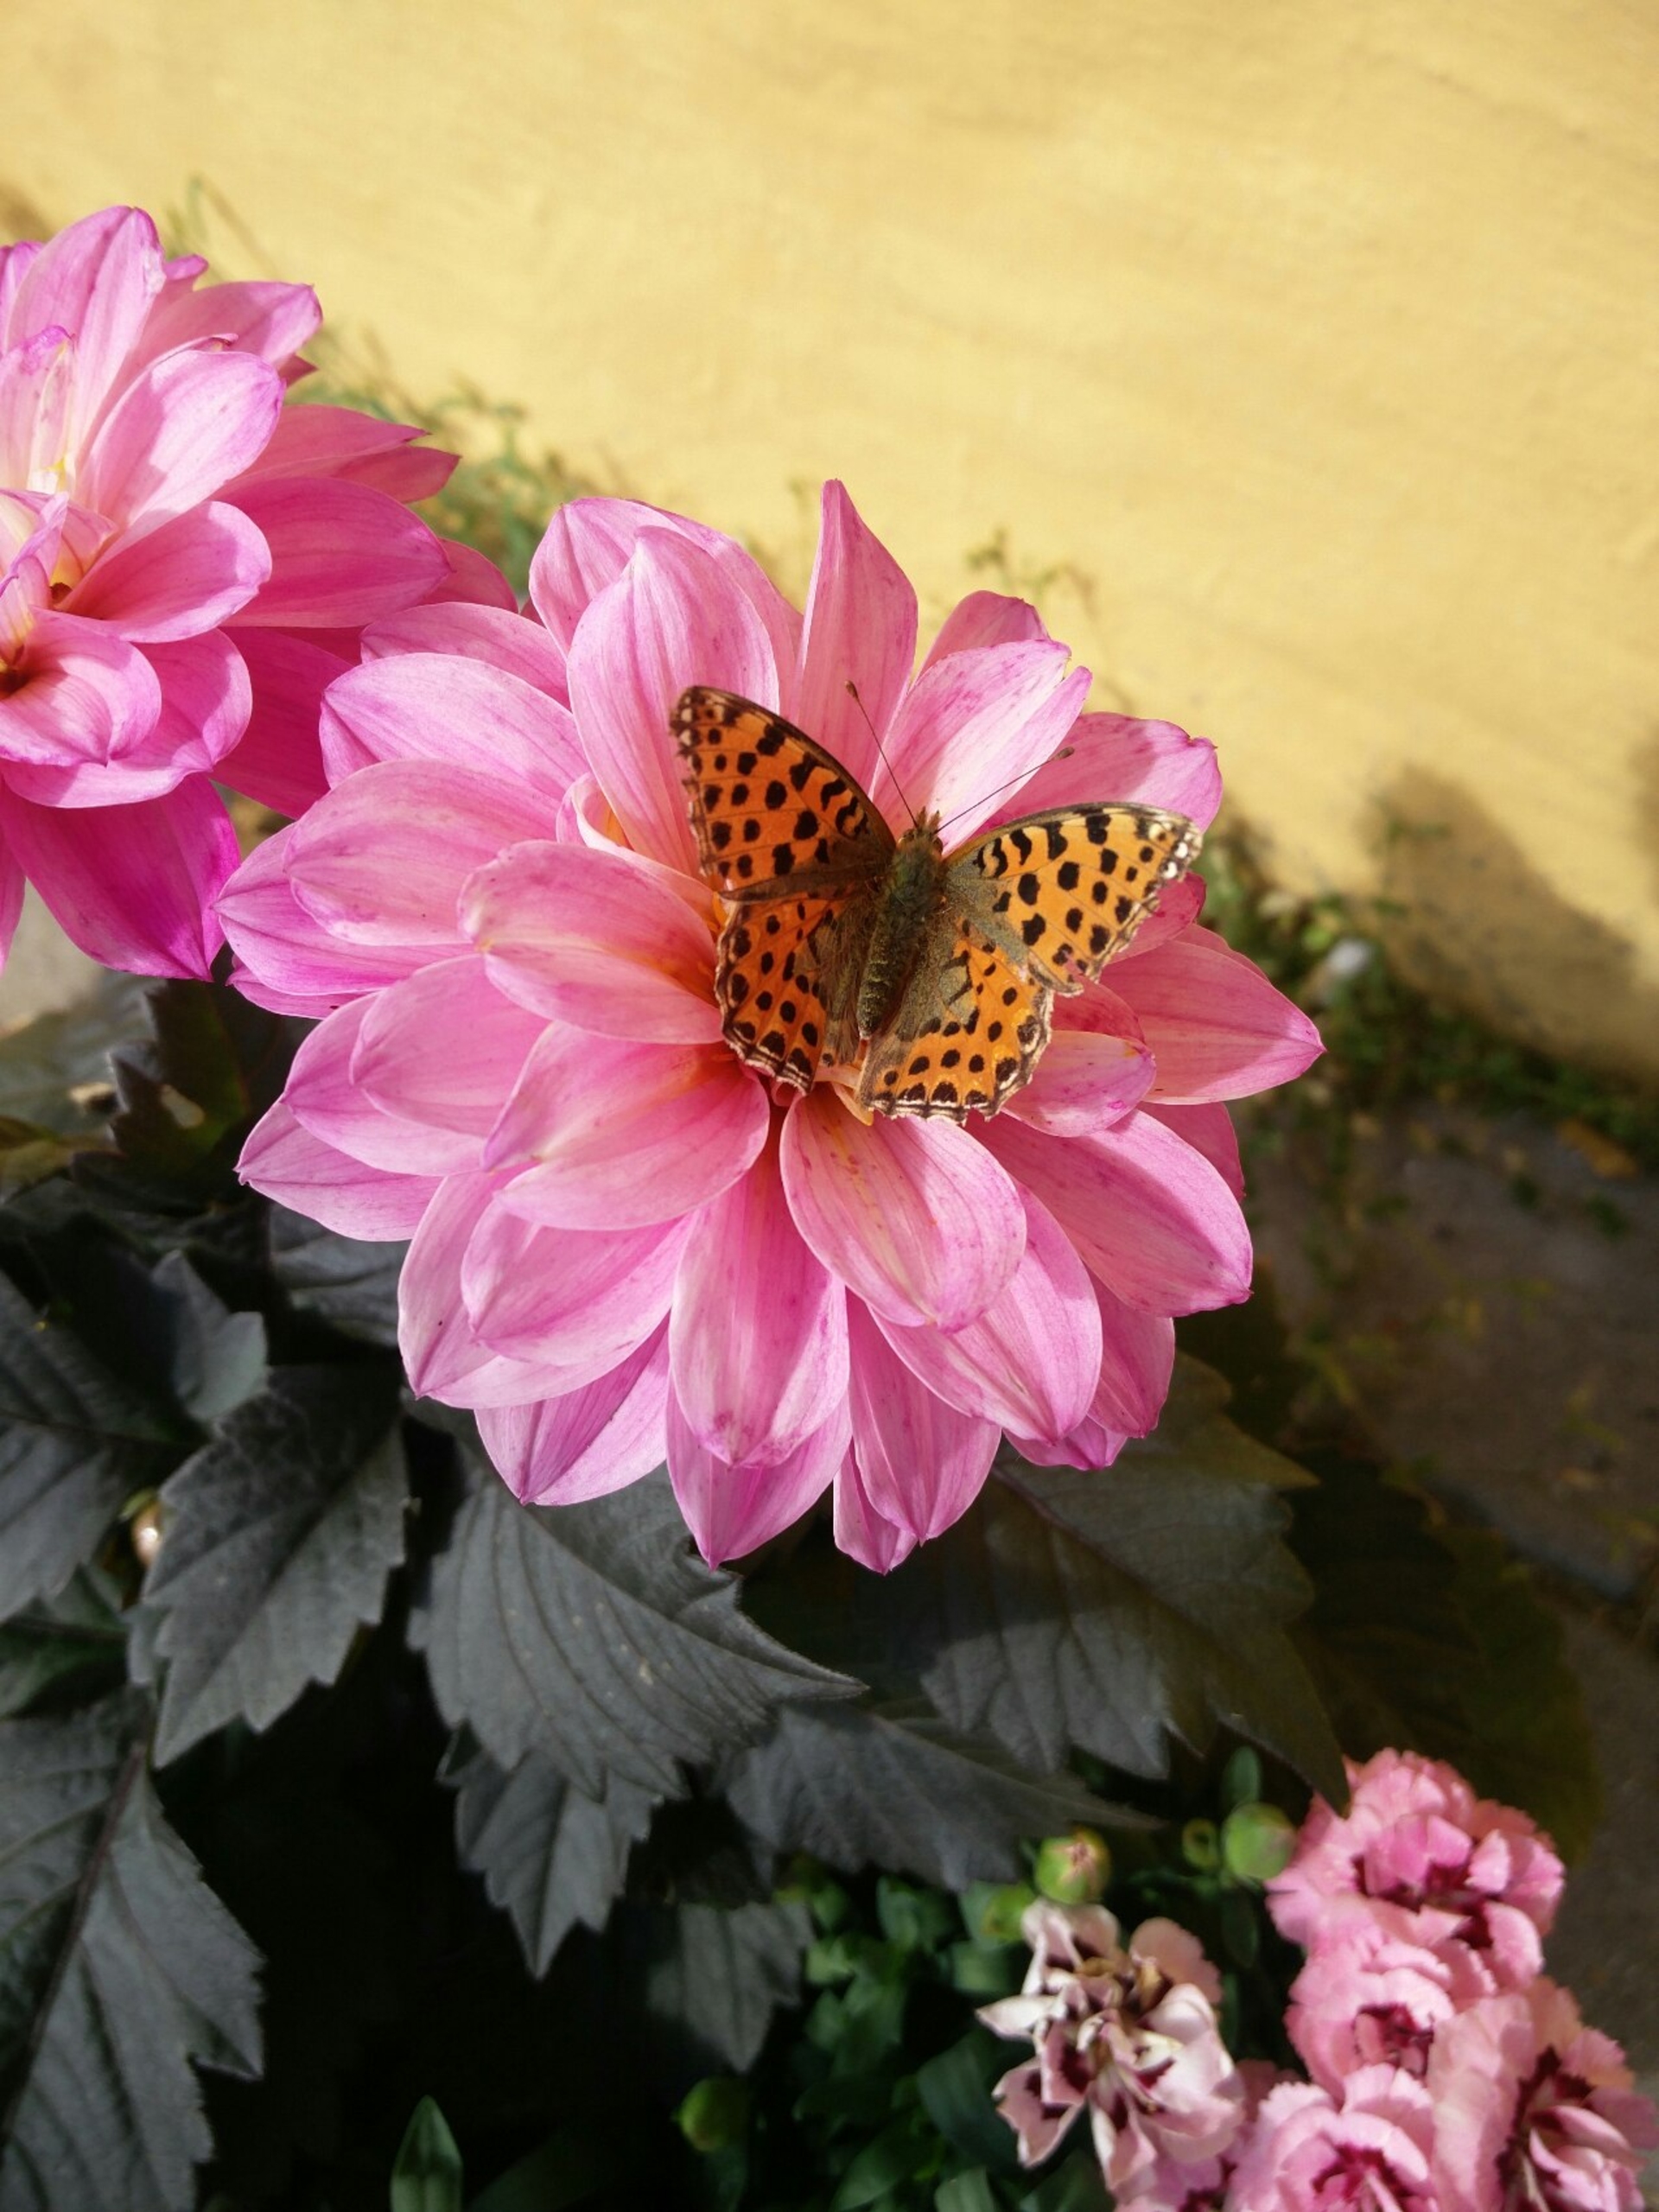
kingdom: Animalia
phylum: Arthropoda
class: Insecta
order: Lepidoptera
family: Nymphalidae
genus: Issoria
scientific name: Issoria lathonia
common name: Storplettet perlemorsommerfugl
